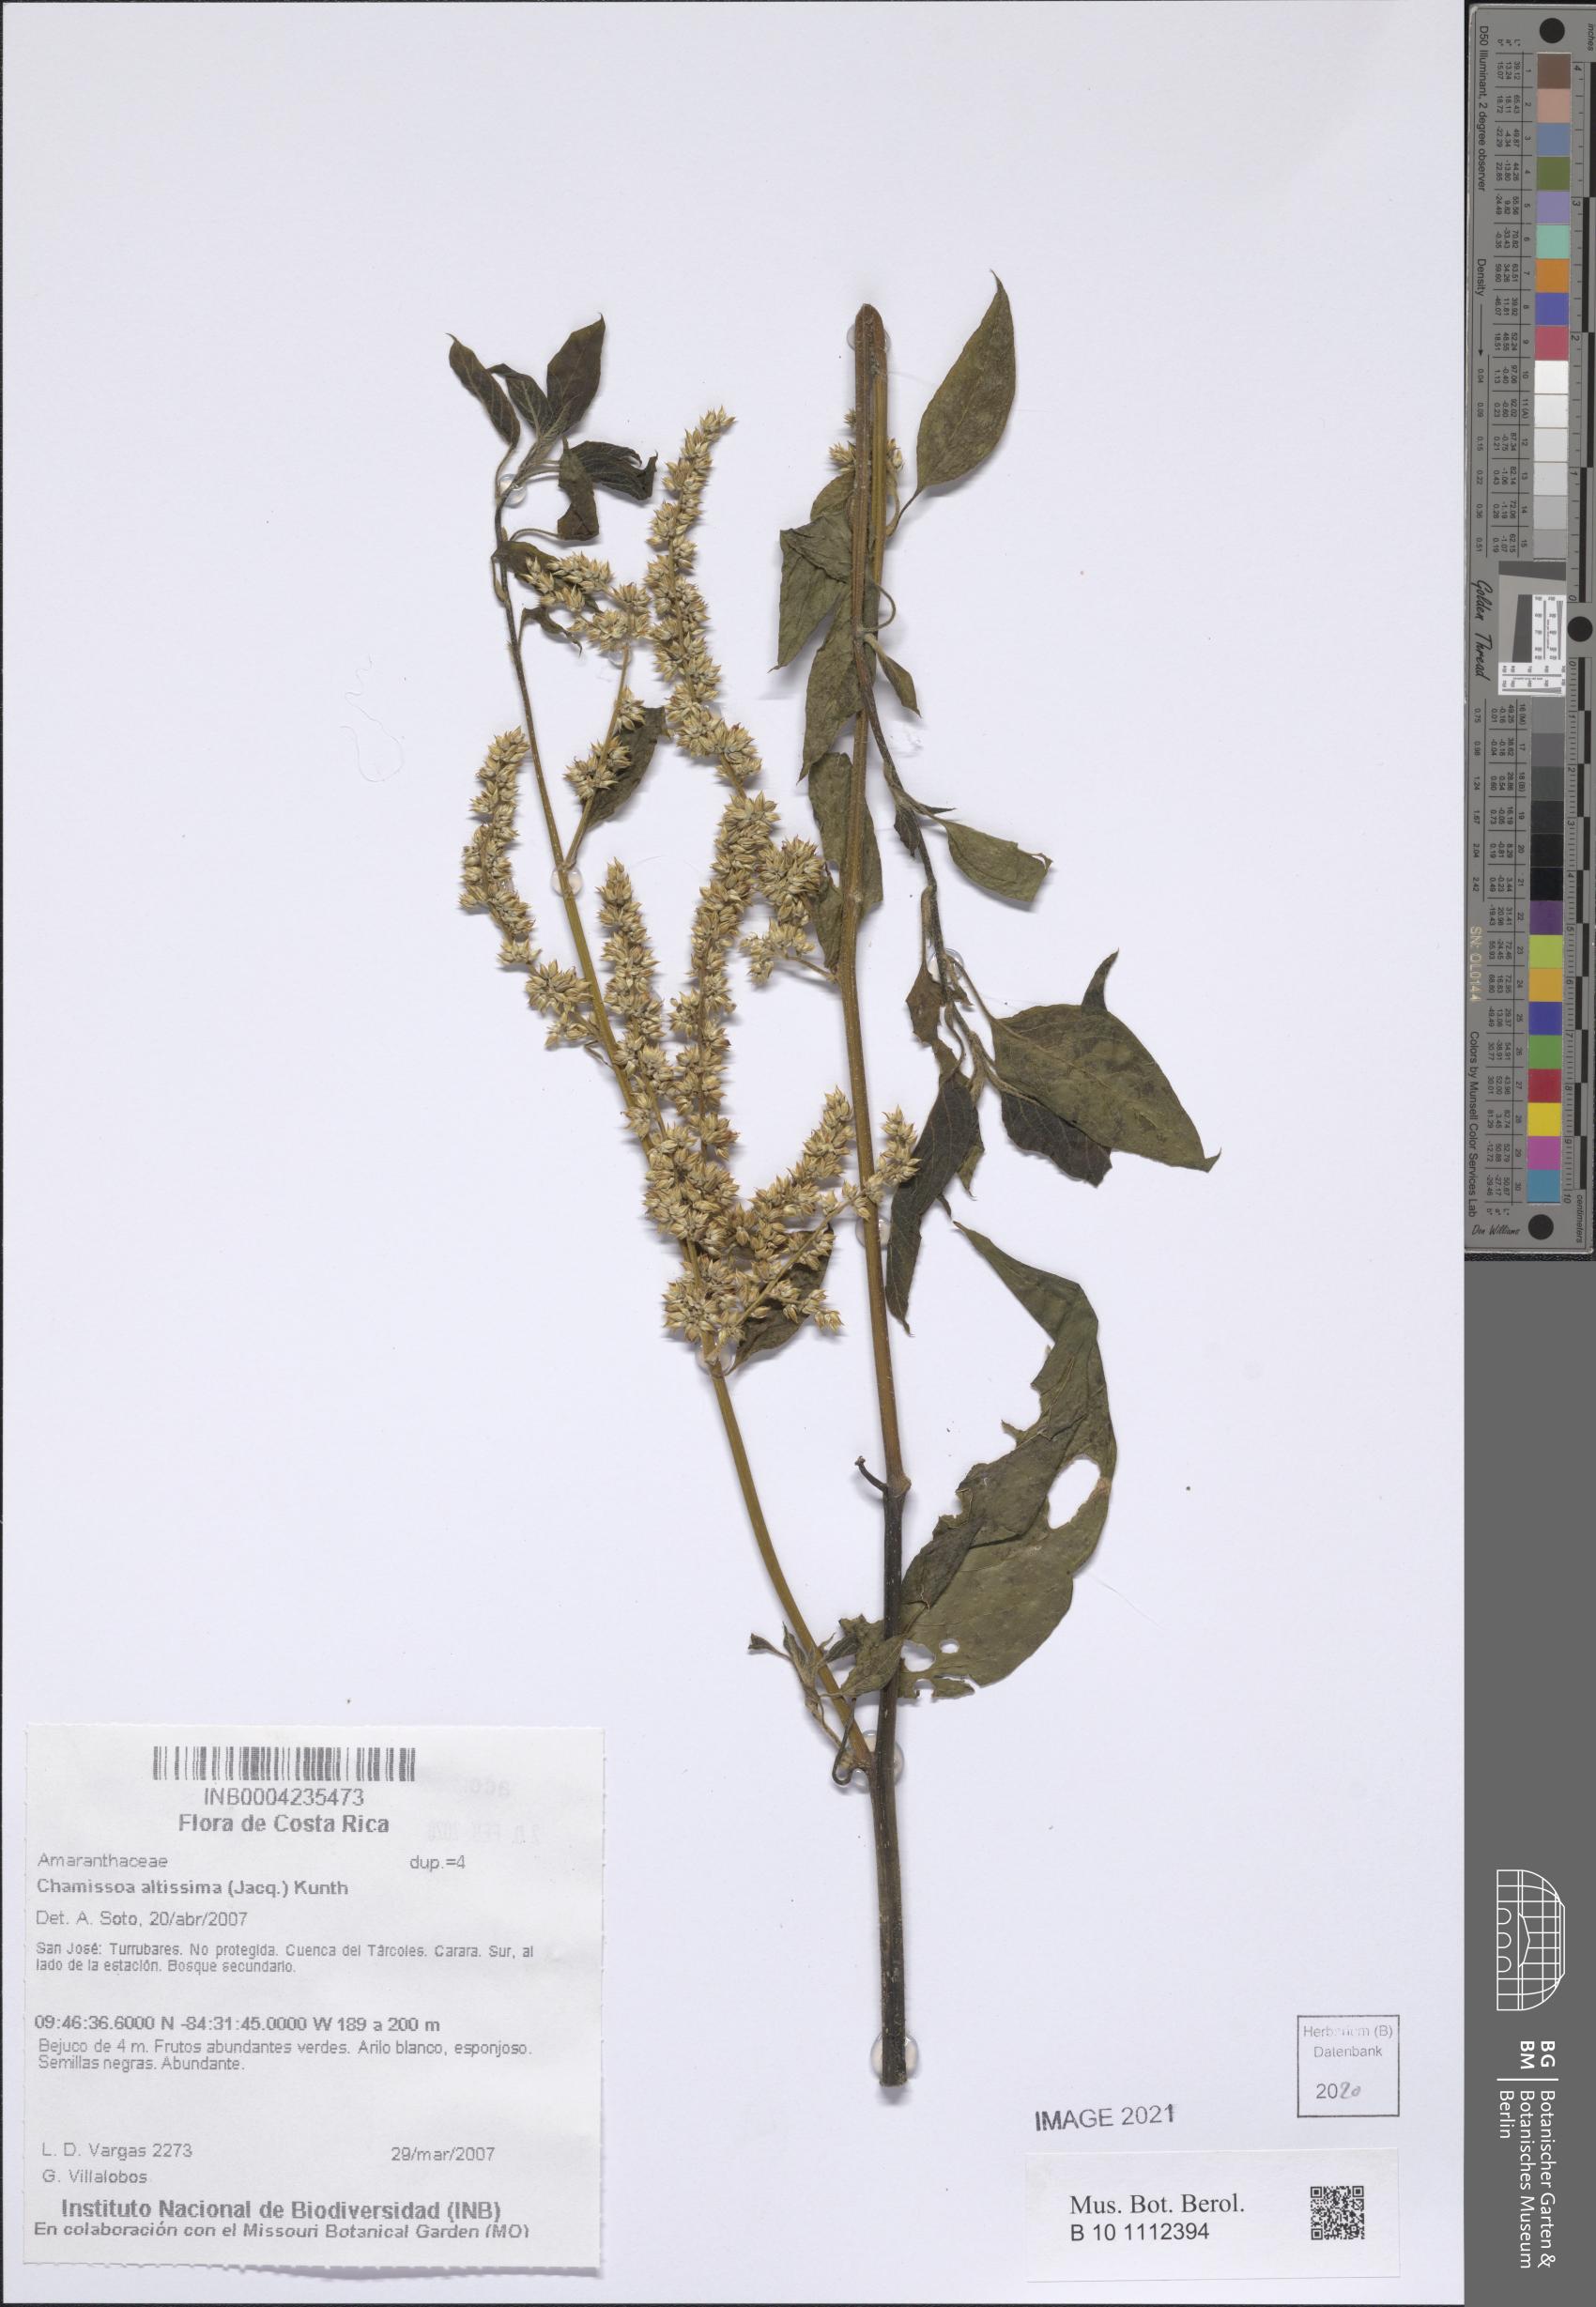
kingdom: Plantae
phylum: Tracheophyta
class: Magnoliopsida
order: Caryophyllales
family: Amaranthaceae
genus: Chamissoa
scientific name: Chamissoa altissima
